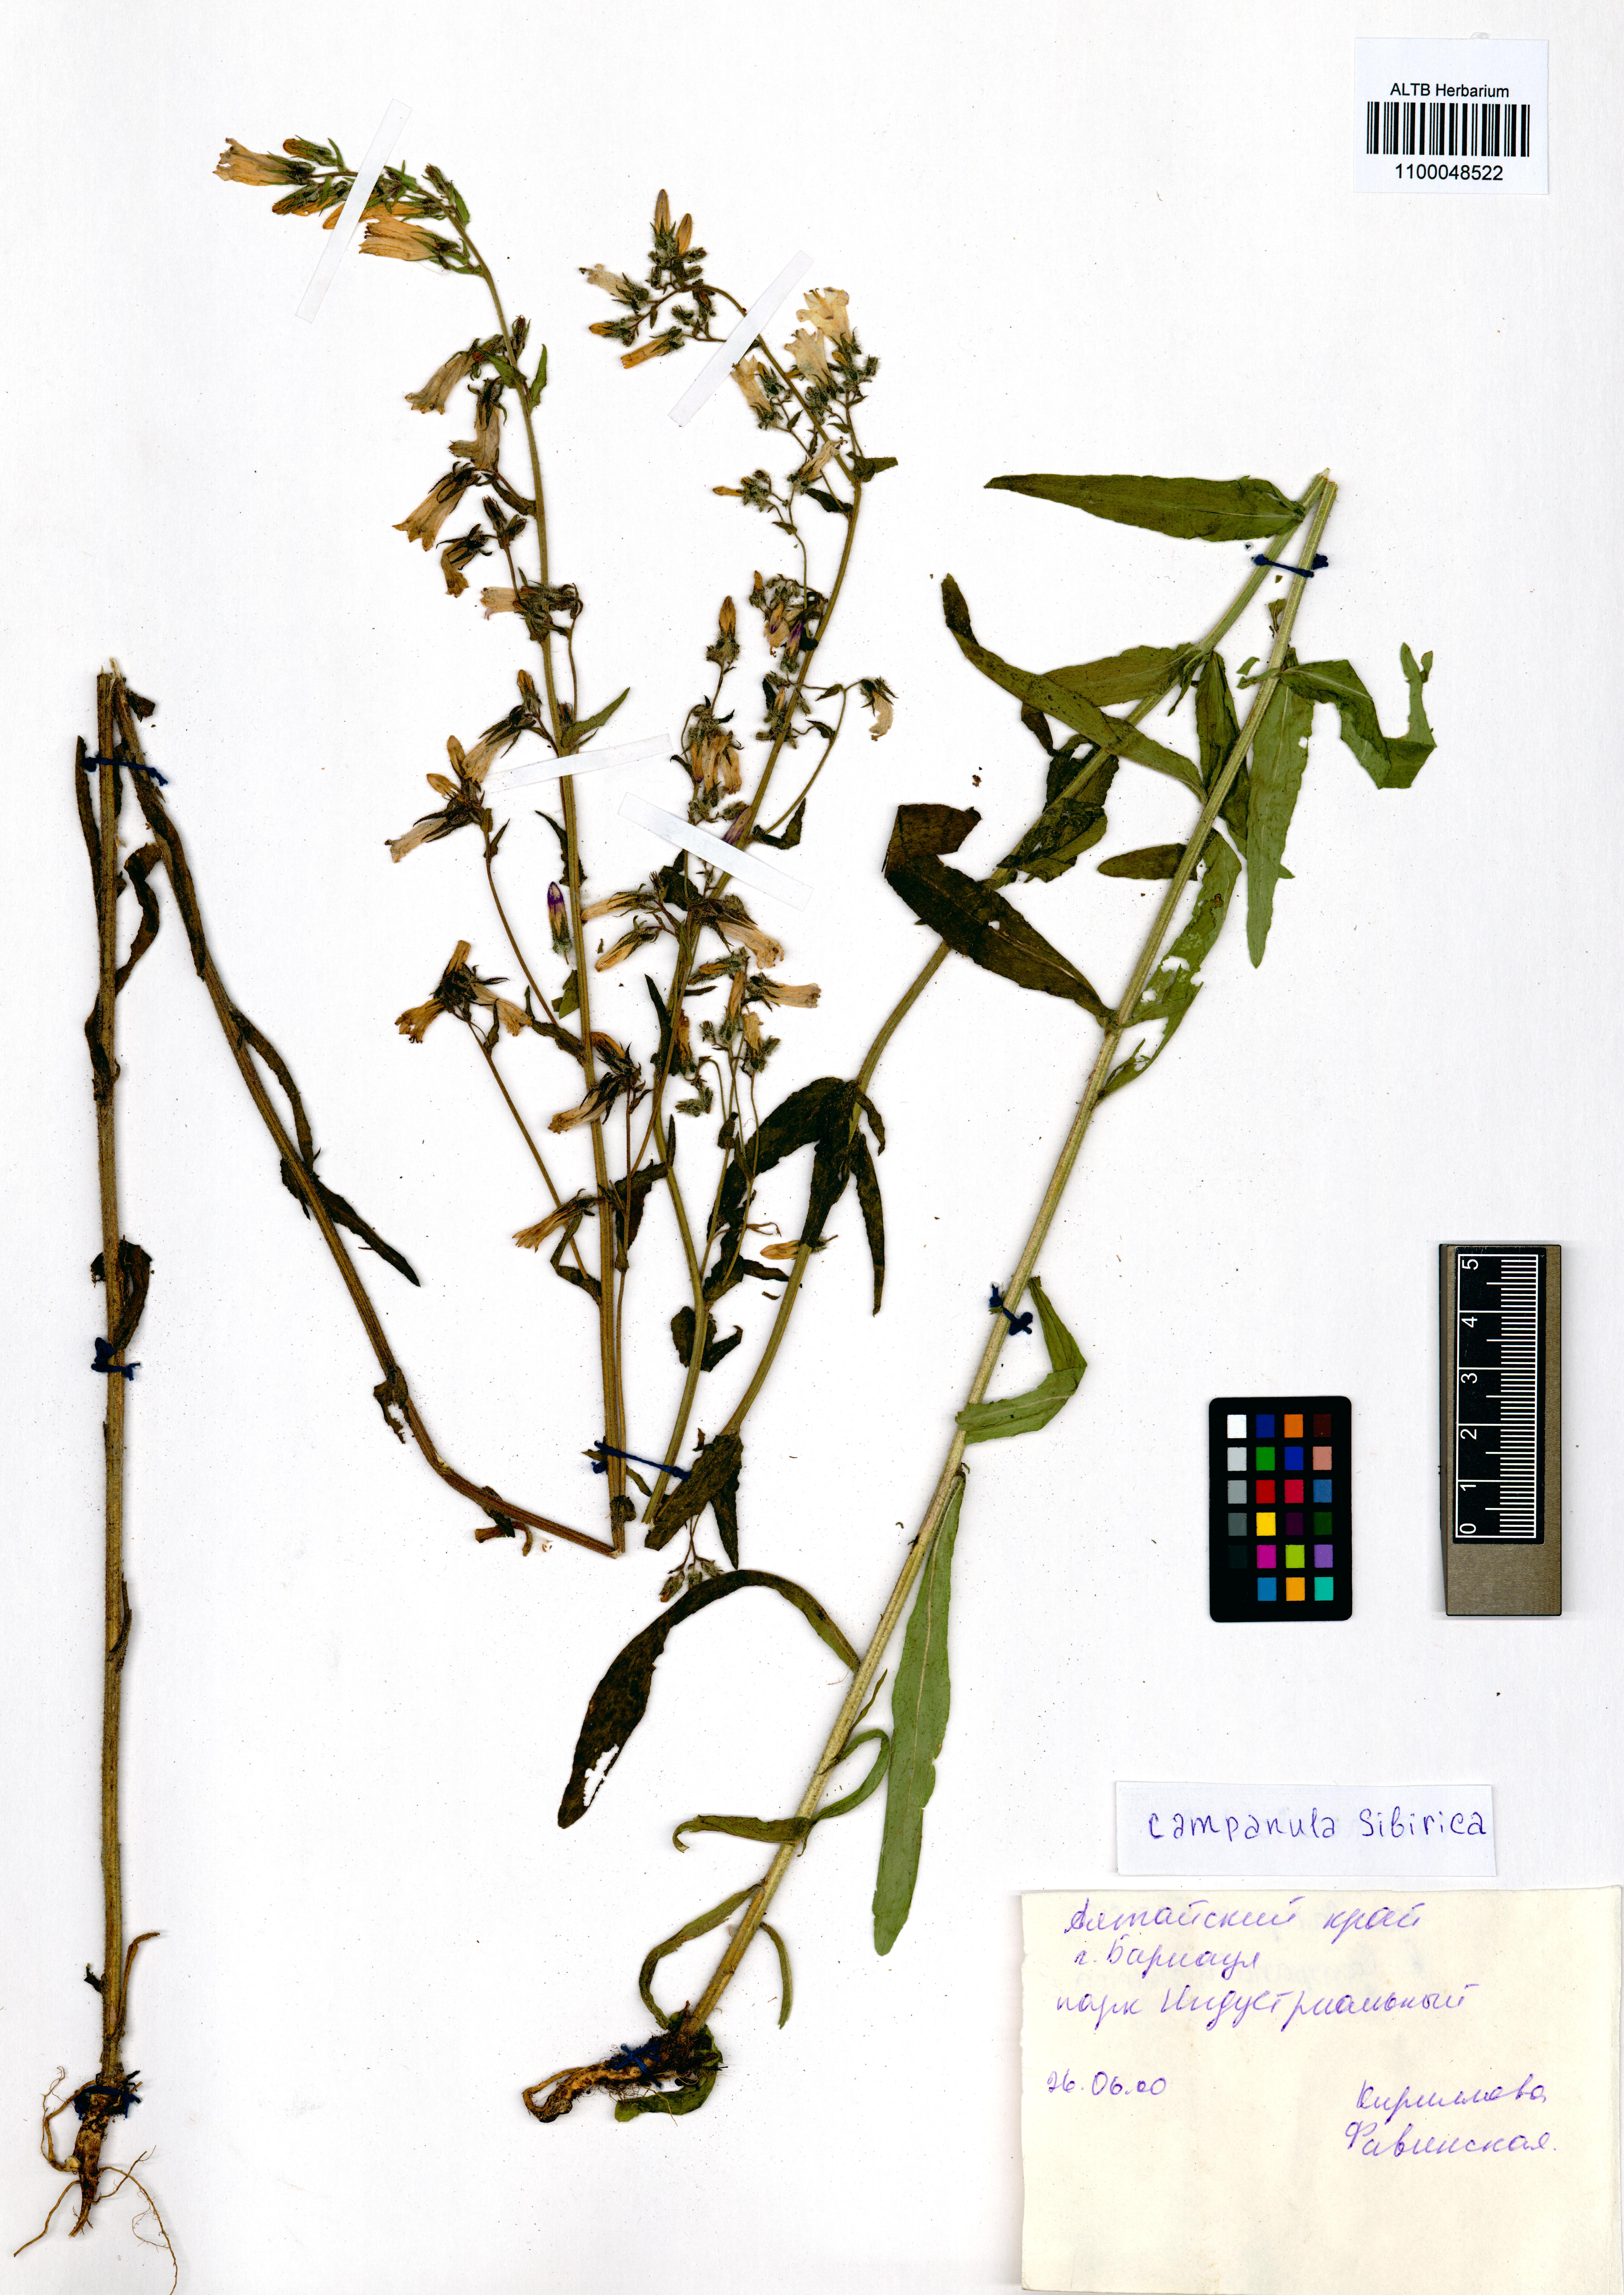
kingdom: Plantae
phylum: Tracheophyta
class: Magnoliopsida
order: Asterales
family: Campanulaceae
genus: Campanula
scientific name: Campanula sibirica
